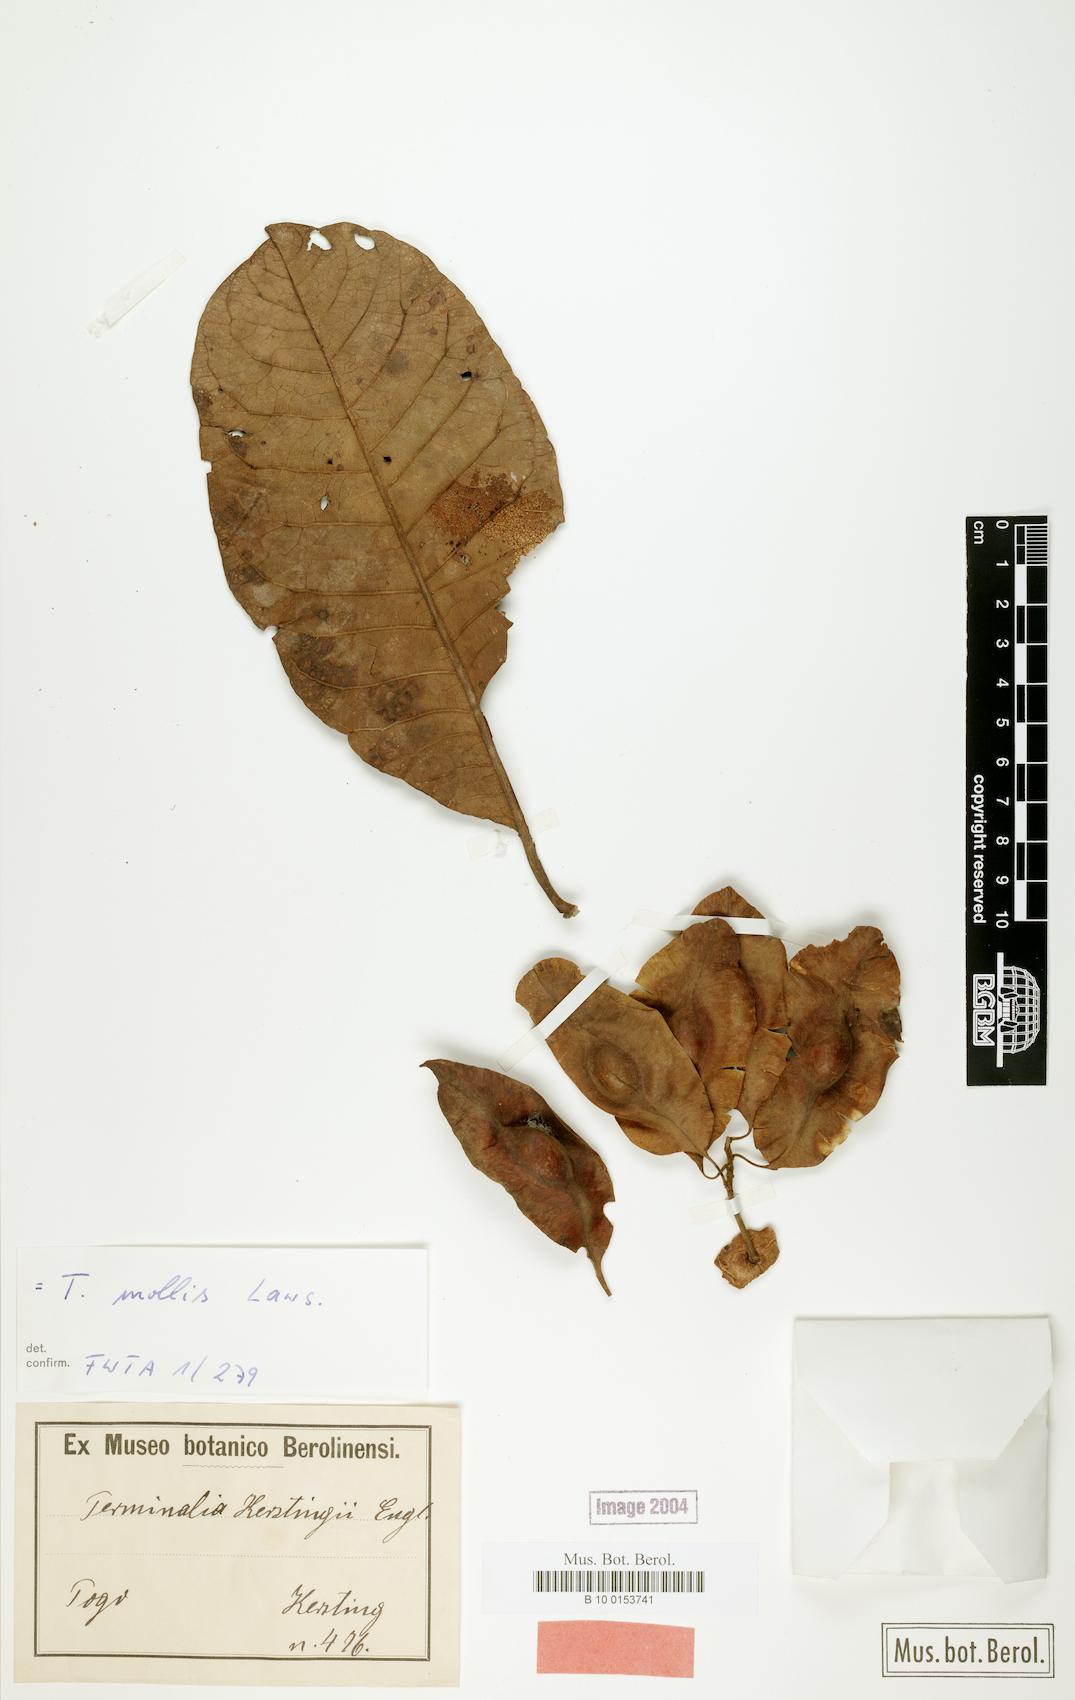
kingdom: Plantae
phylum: Tracheophyta
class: Magnoliopsida
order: Myrtales
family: Combretaceae
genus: Terminalia
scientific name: Terminalia mollis
